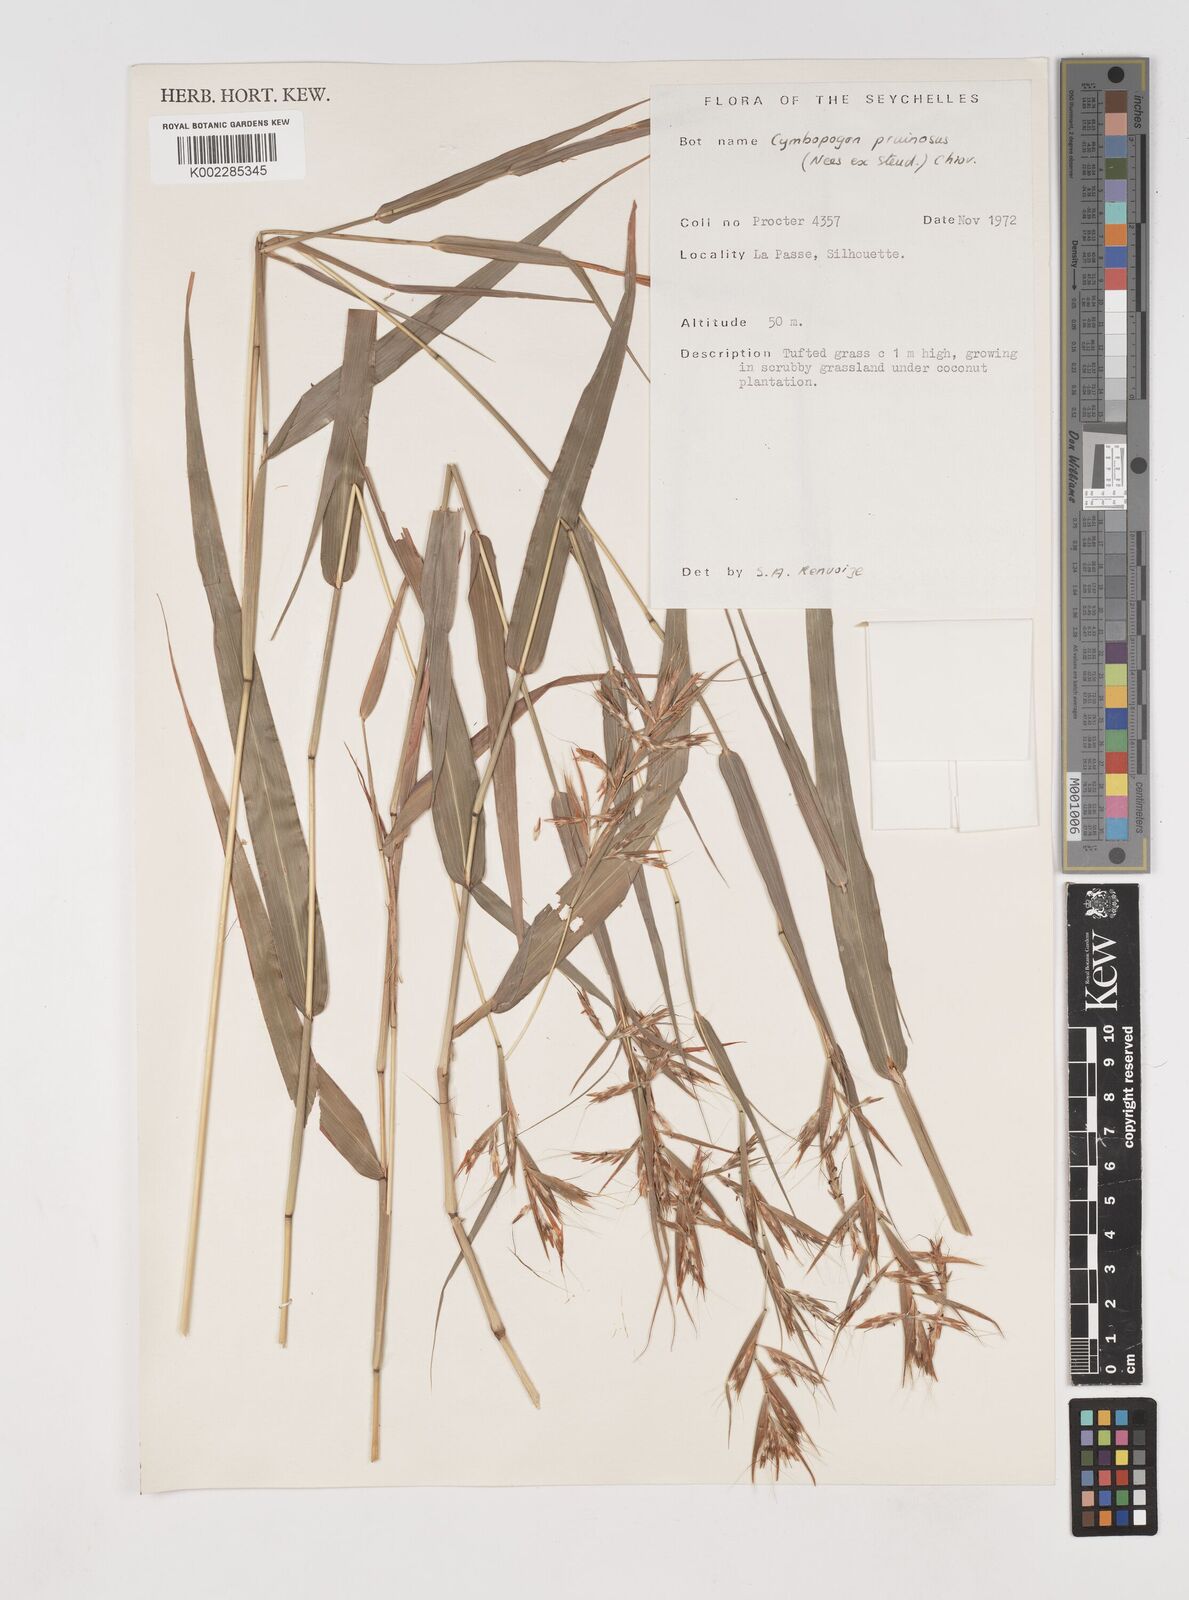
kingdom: Plantae
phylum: Tracheophyta
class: Liliopsida
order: Poales
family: Poaceae
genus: Cymbopogon
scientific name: Cymbopogon pruinosus
